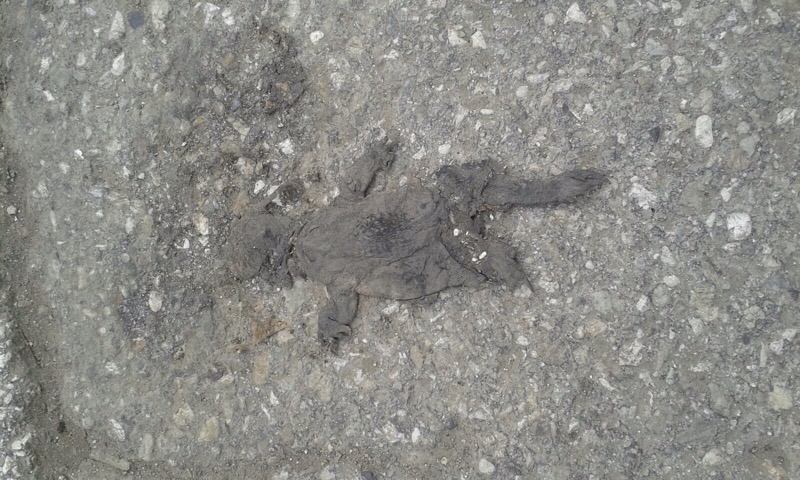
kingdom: Animalia
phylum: Chordata
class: Amphibia
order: Anura
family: Bufonidae
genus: Bufo
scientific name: Bufo bufo
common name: Common toad
